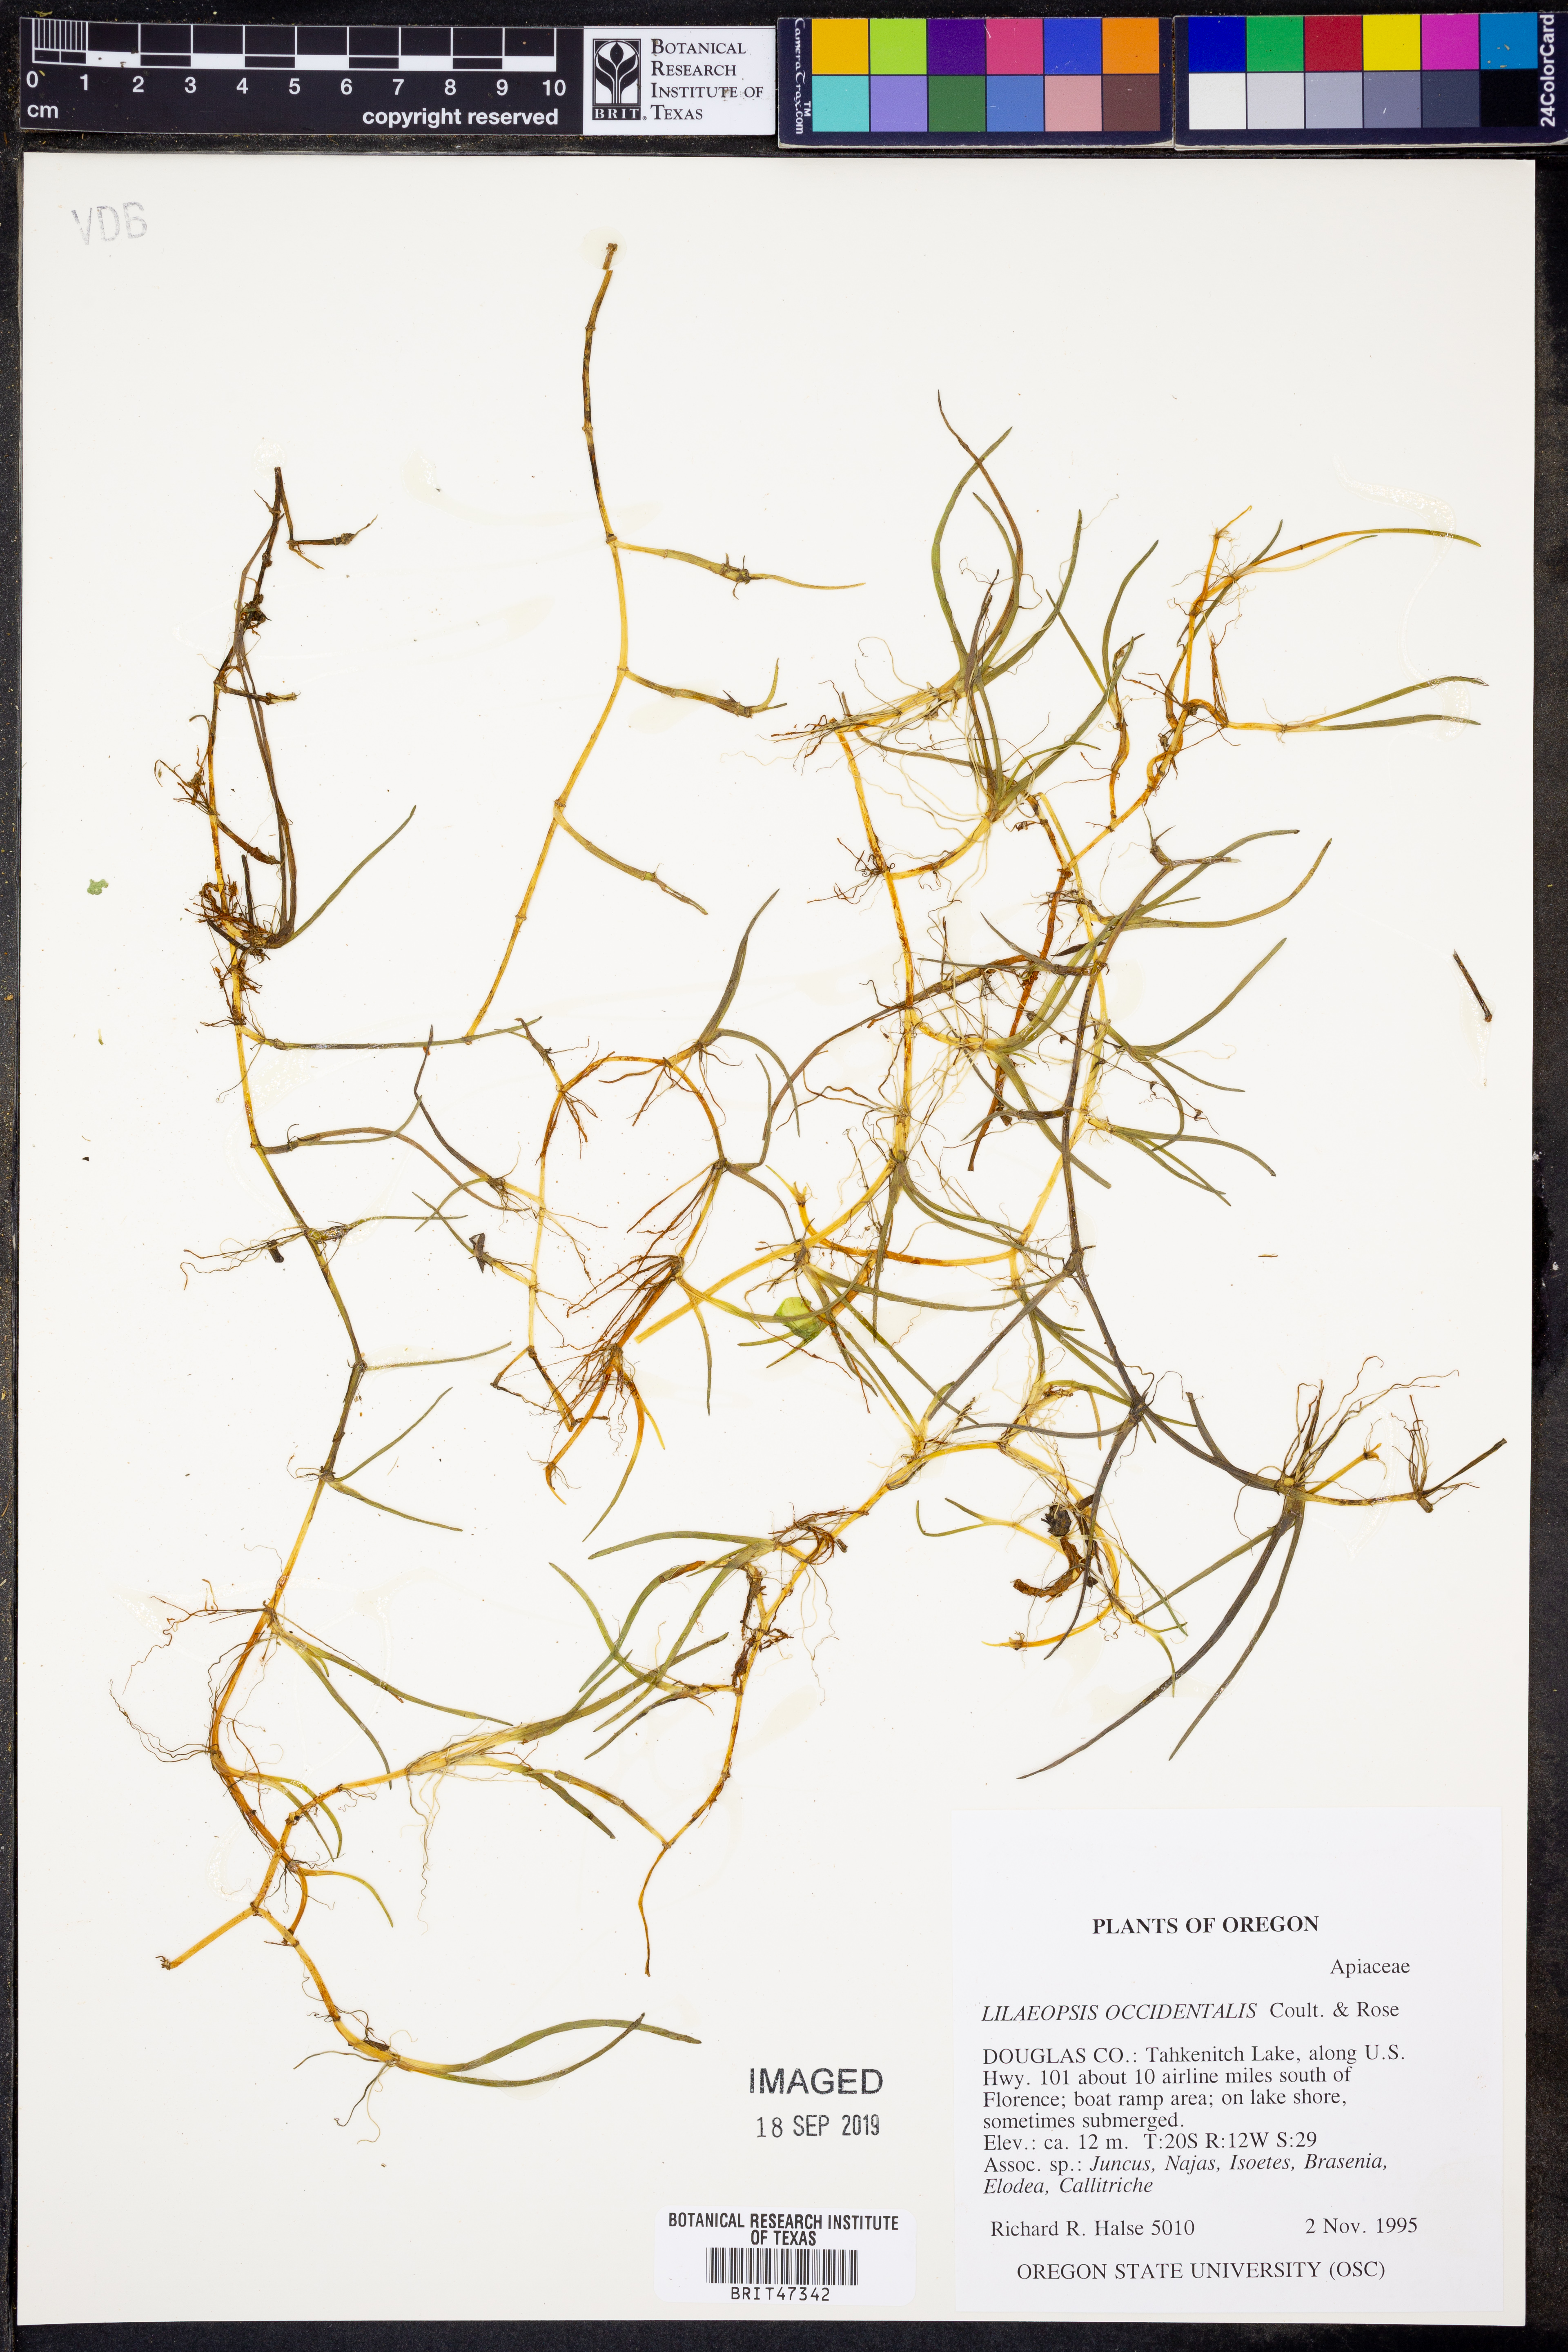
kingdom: Plantae
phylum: Tracheophyta
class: Magnoliopsida
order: Apiales
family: Apiaceae
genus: Lilaeopsis
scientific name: Lilaeopsis occidentalis
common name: Western grasswort
